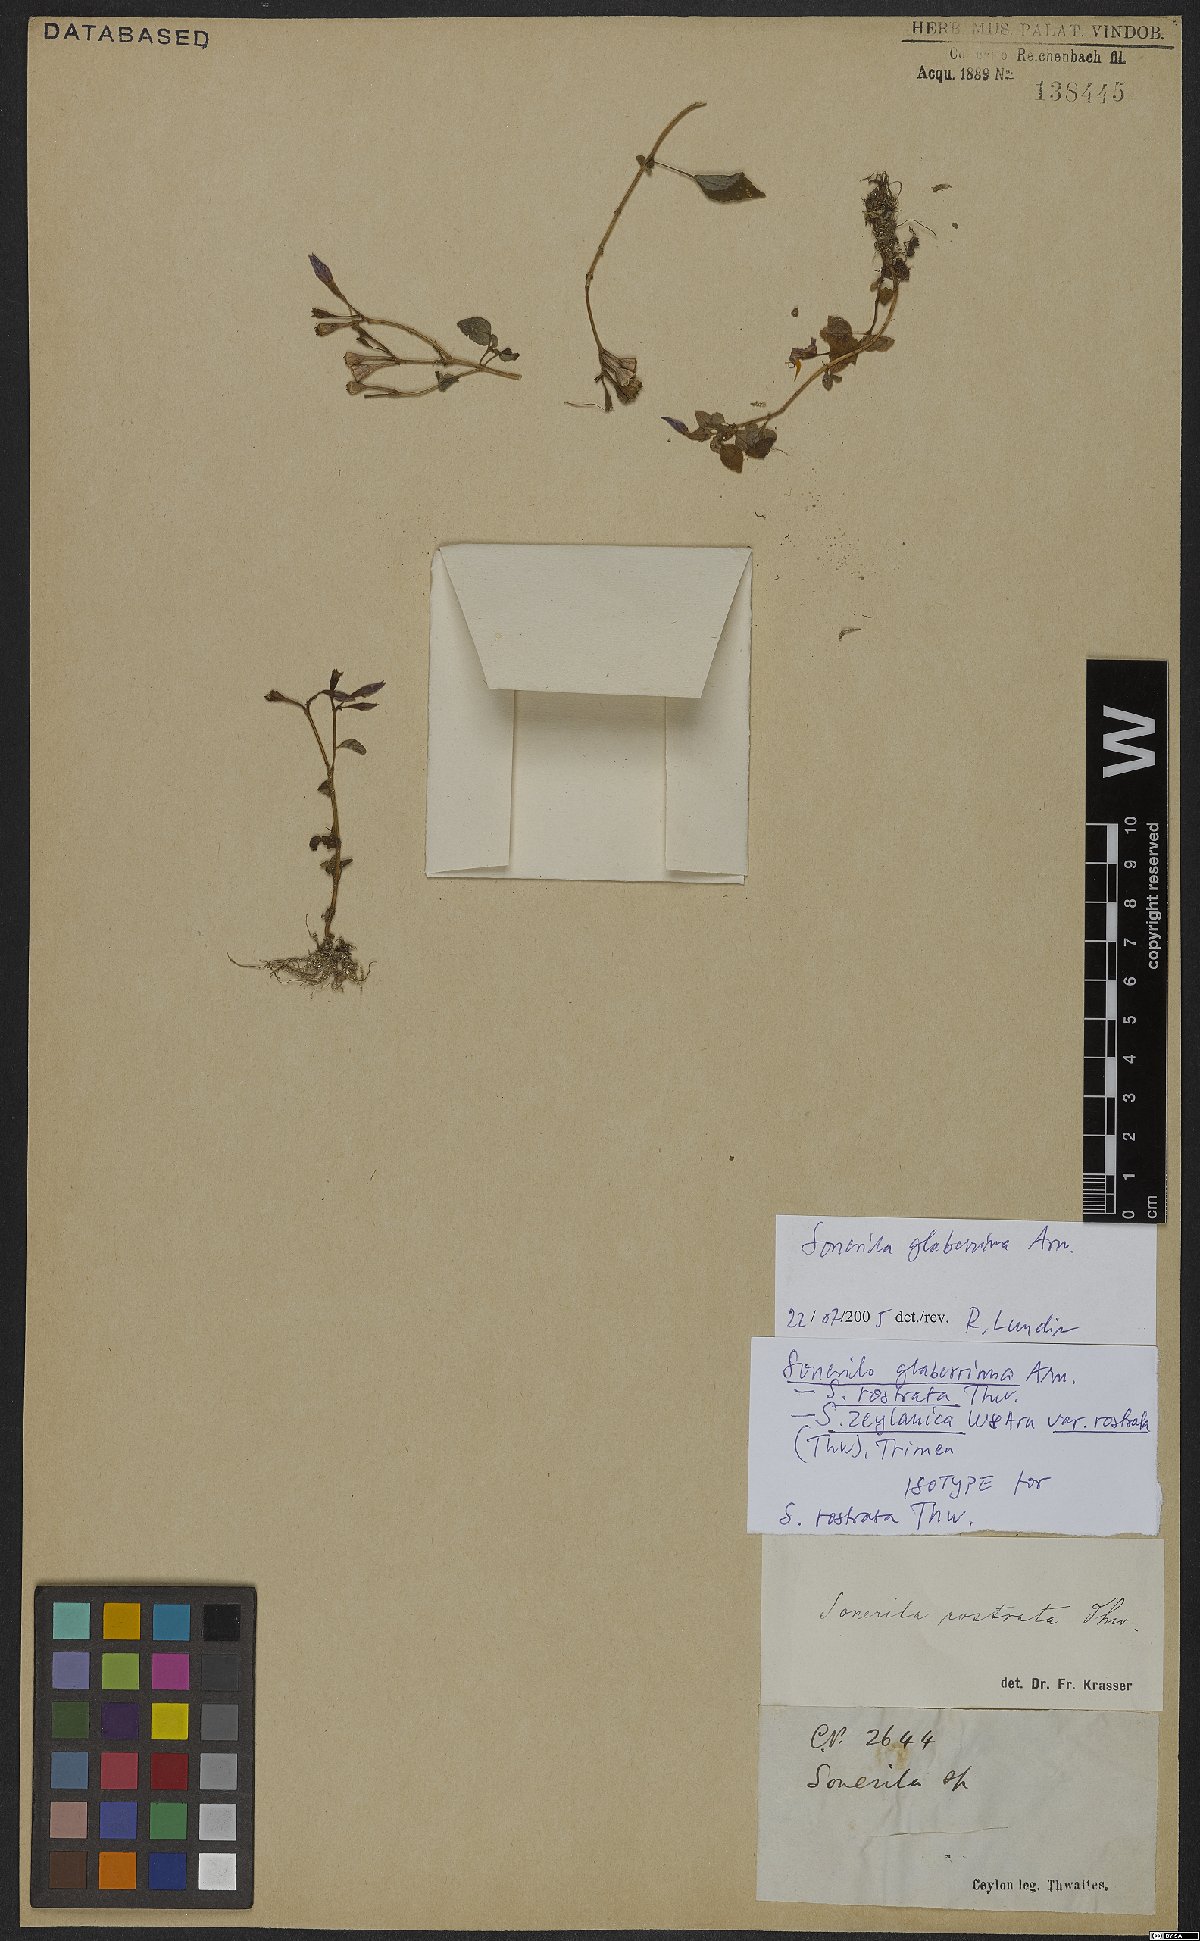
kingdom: Plantae
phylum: Tracheophyta
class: Magnoliopsida
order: Myrtales
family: Melastomataceae
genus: Sonerila
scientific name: Sonerila glaberrima
